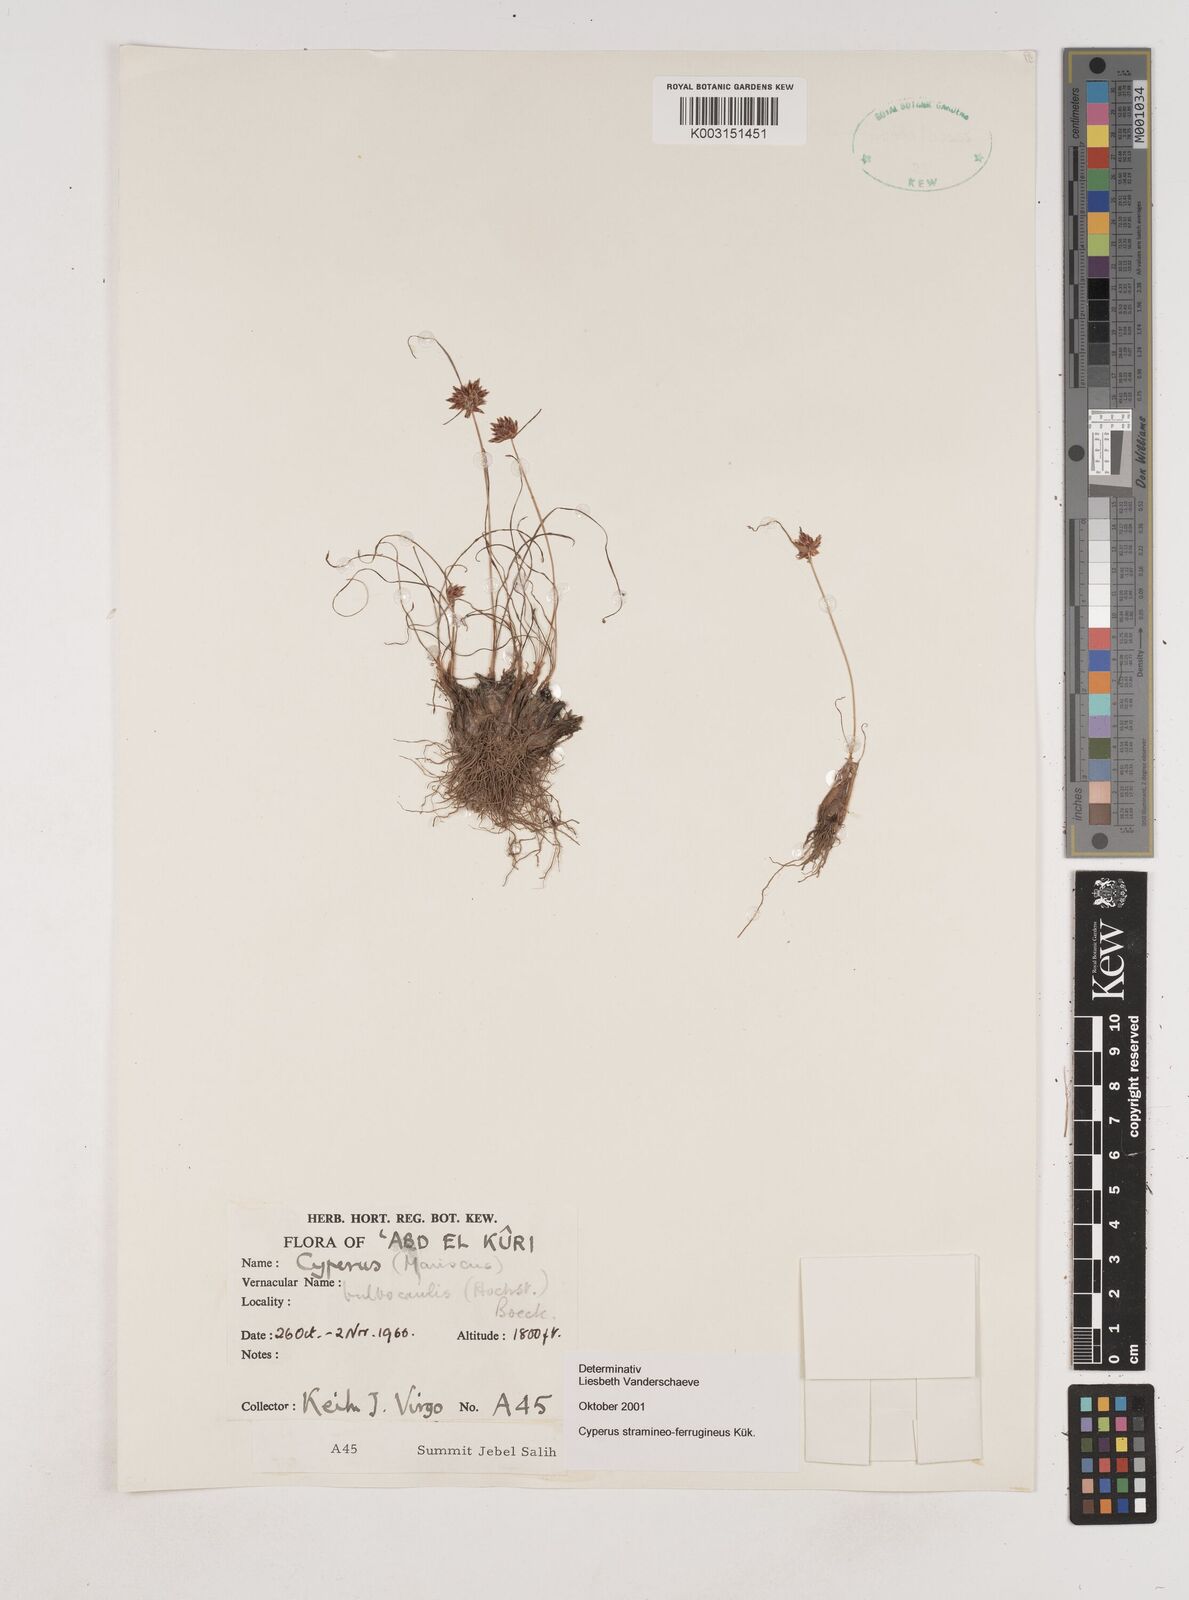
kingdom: Plantae
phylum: Tracheophyta
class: Liliopsida
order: Poales
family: Cyperaceae
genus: Cyperus
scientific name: Cyperus stramineoferrugineus
